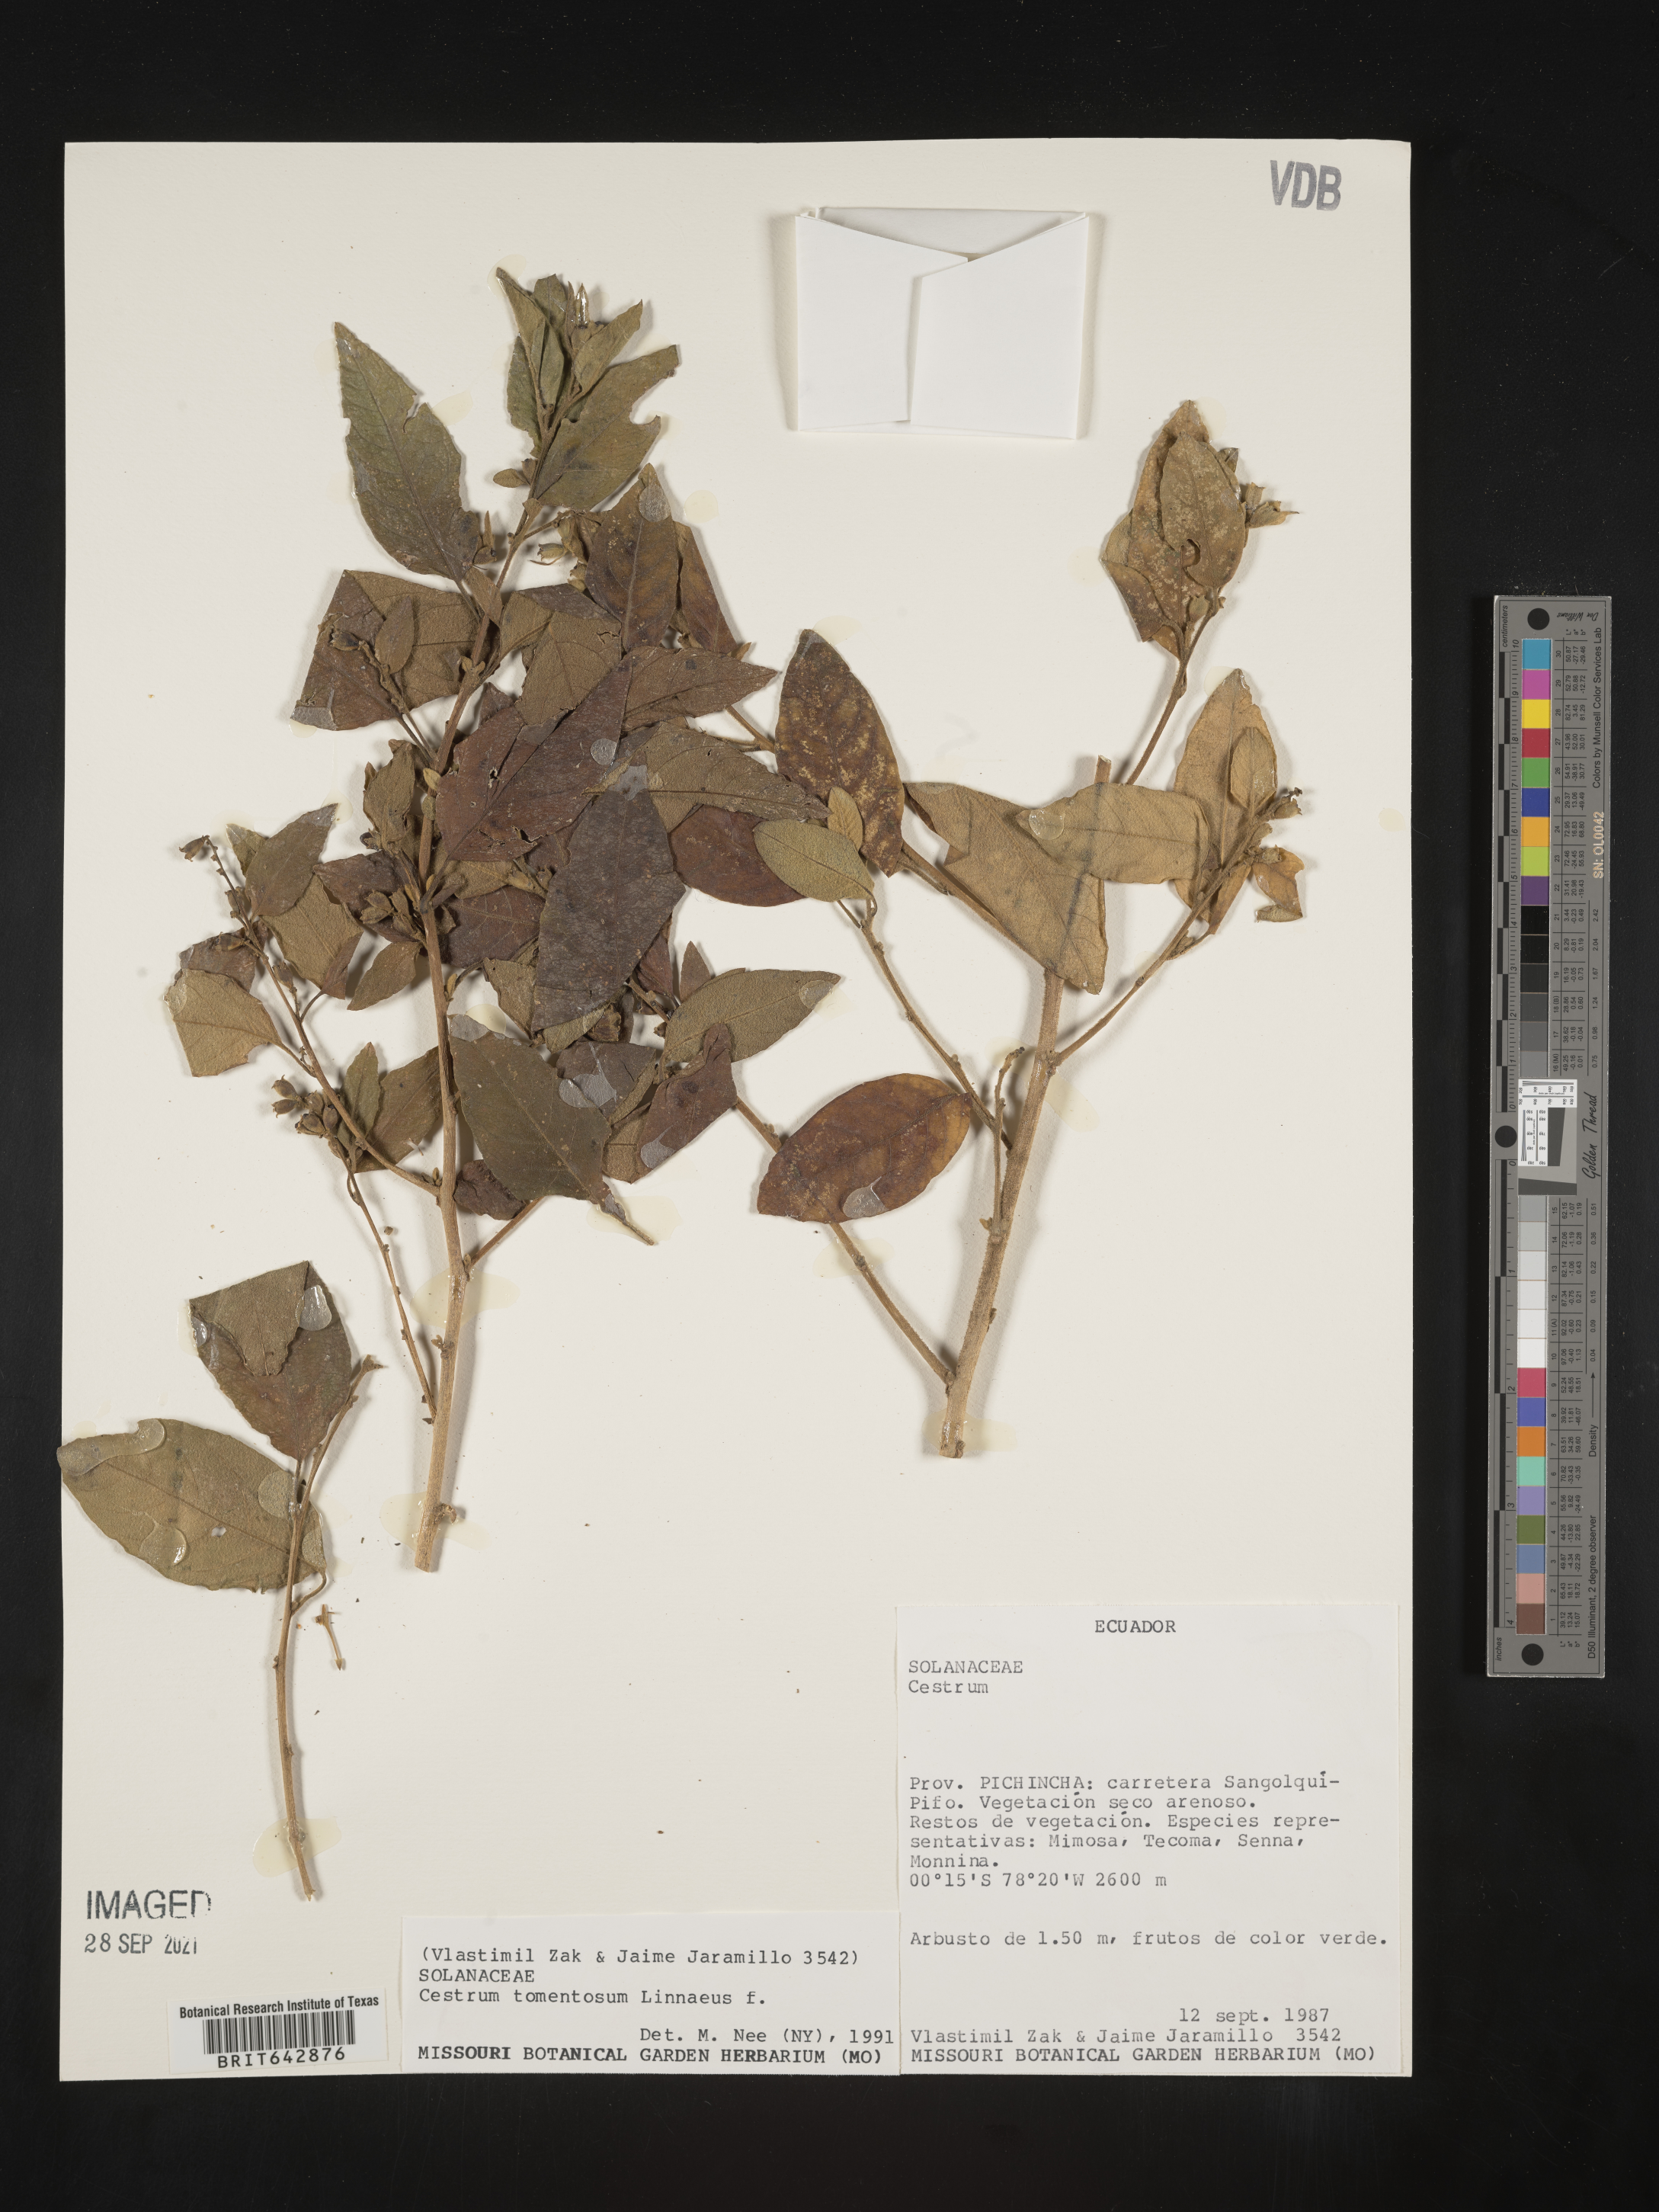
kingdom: Plantae
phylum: Tracheophyta
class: Magnoliopsida
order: Solanales
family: Solanaceae
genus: Cestrum
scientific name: Cestrum
